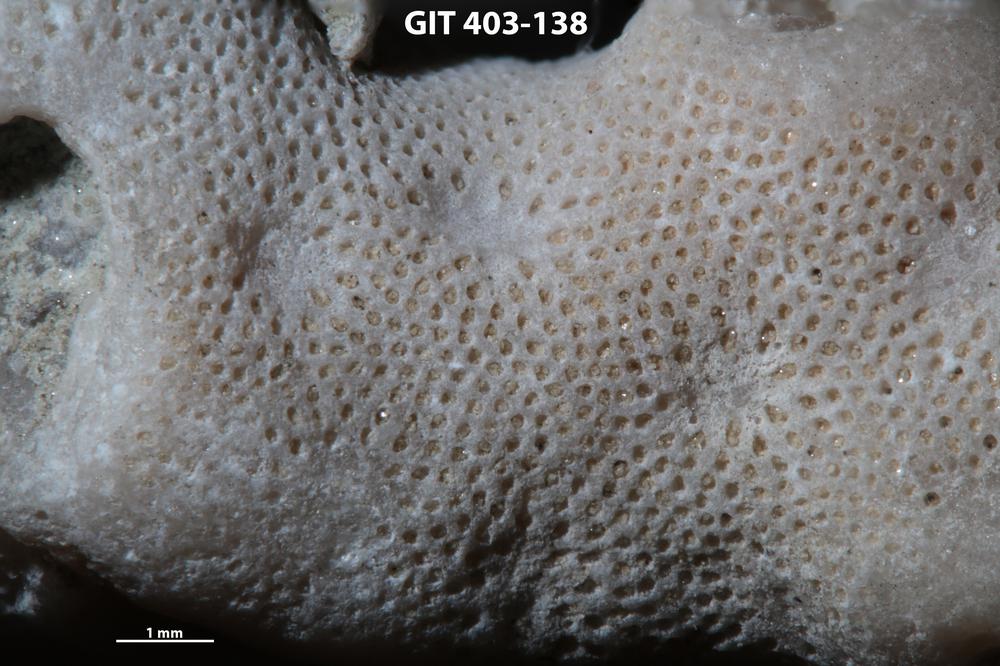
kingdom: Animalia
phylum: Bryozoa
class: Stenolaemata
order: Cystoporida
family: Fistuliporidae
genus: Fistulipora
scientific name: Fistulipora przhidolensis
